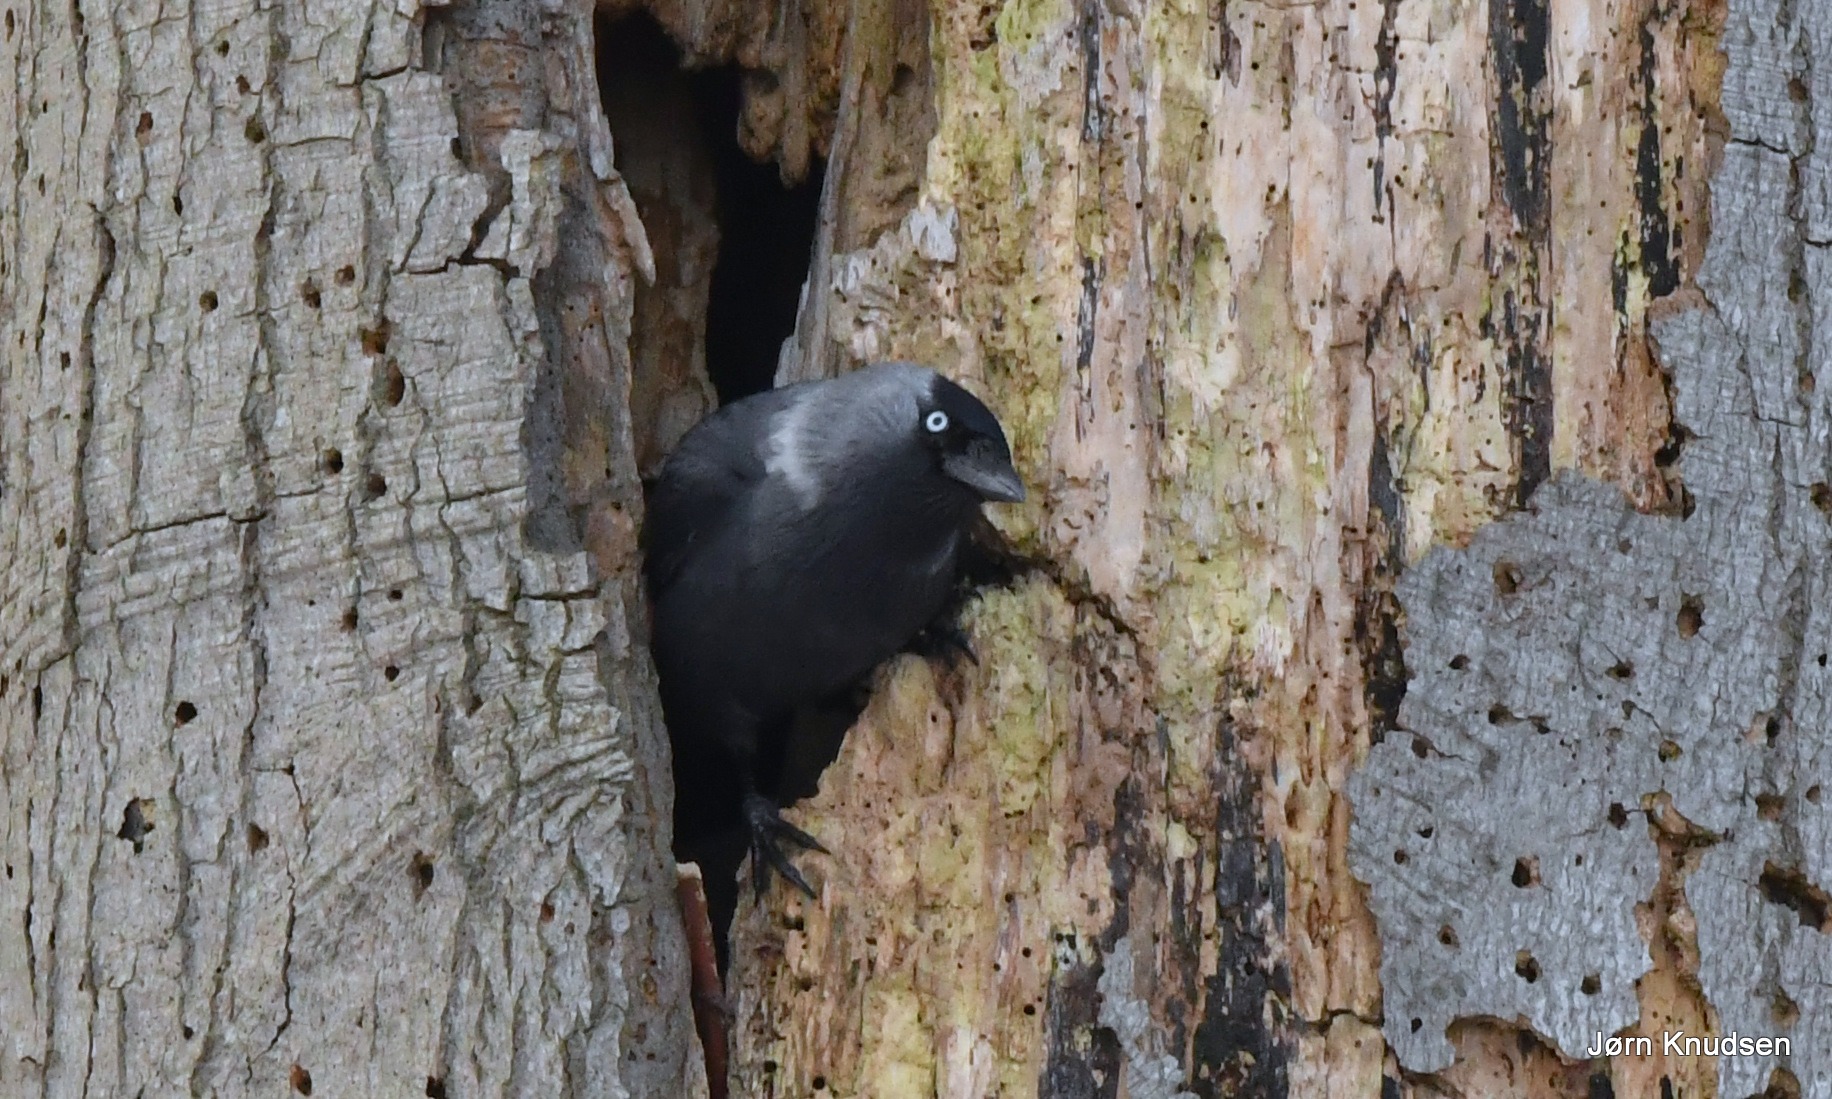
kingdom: Animalia
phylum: Chordata
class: Aves
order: Passeriformes
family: Corvidae
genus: Coloeus
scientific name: Coloeus monedula
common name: Allike
